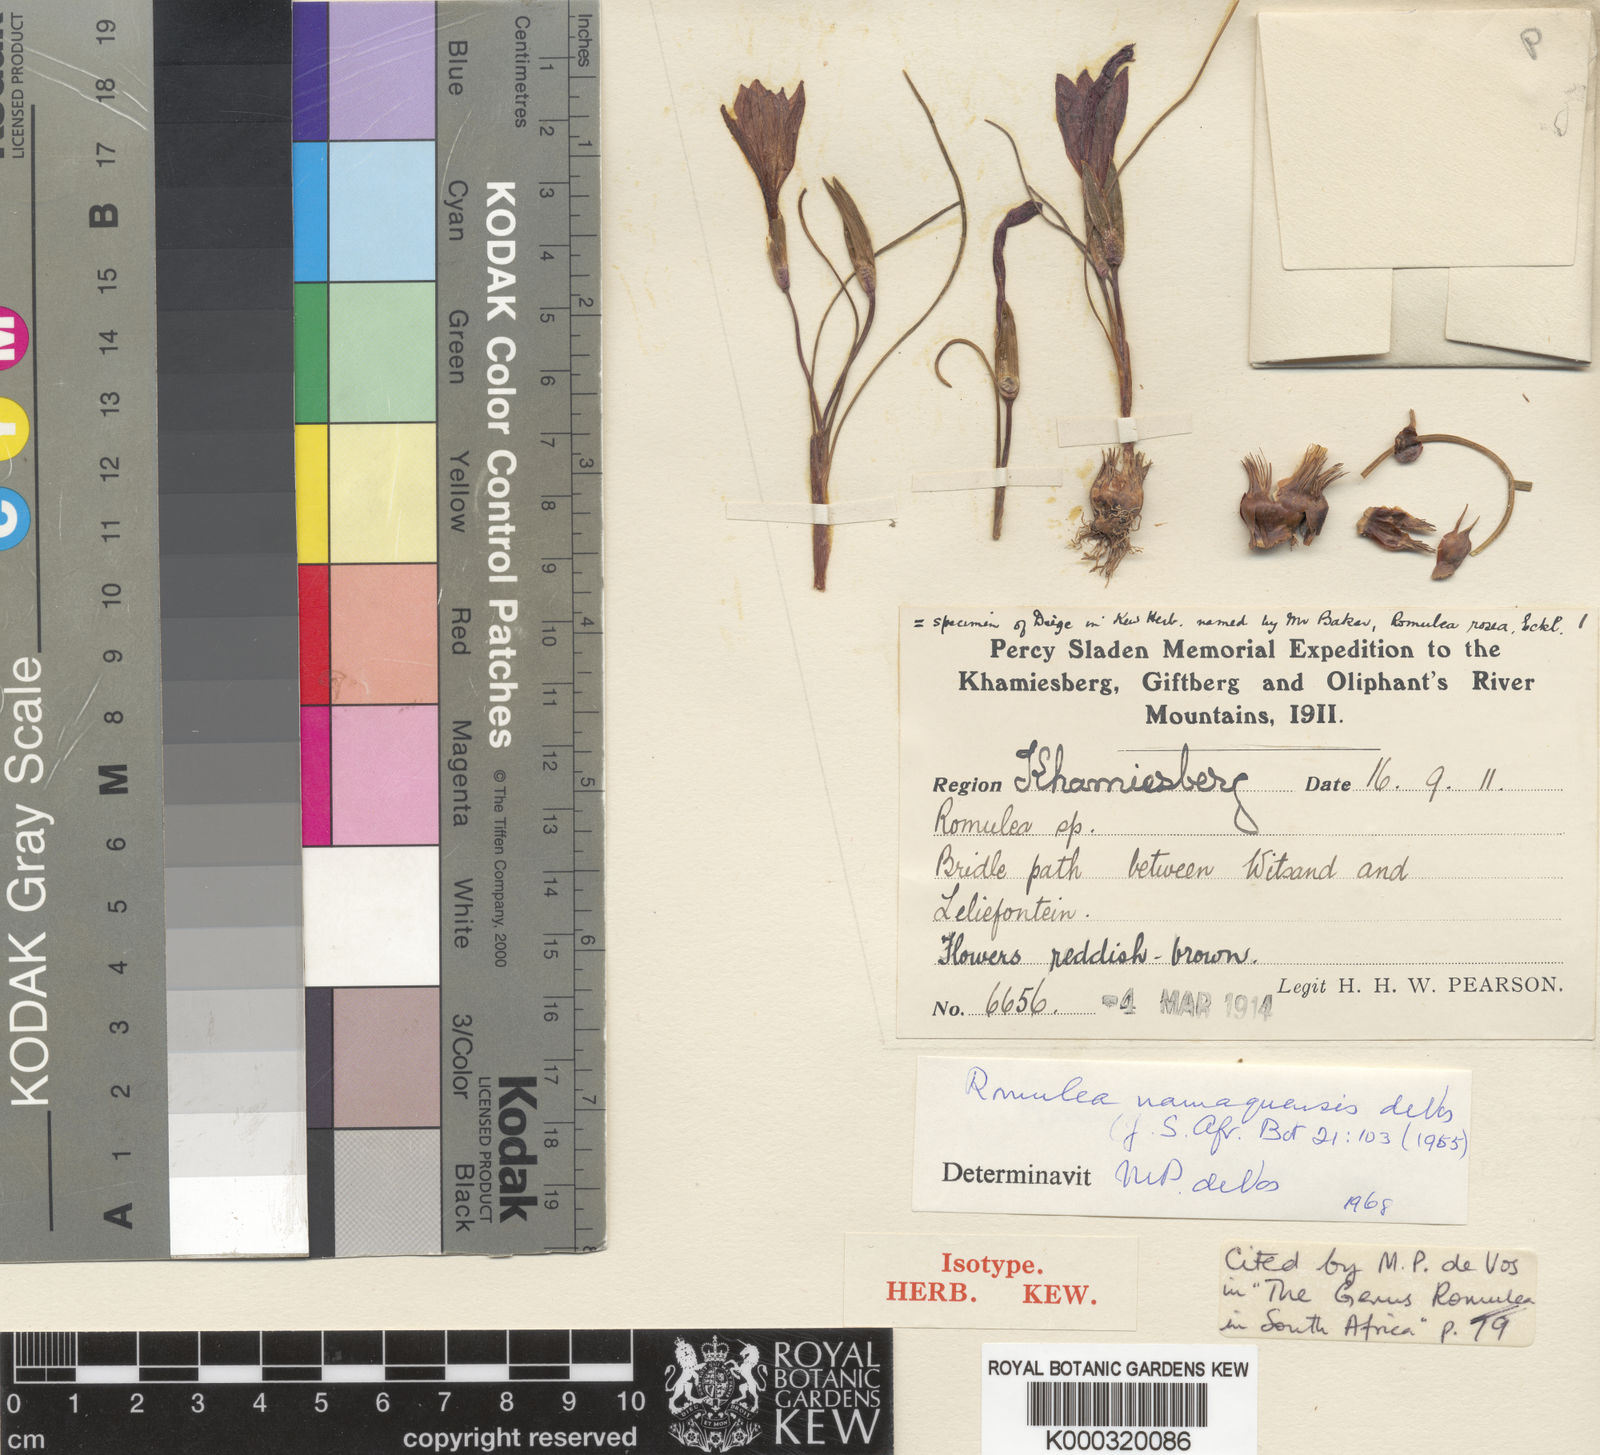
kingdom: Plantae
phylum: Tracheophyta
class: Liliopsida
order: Asparagales
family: Iridaceae
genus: Romulea
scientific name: Romulea namaquensis
